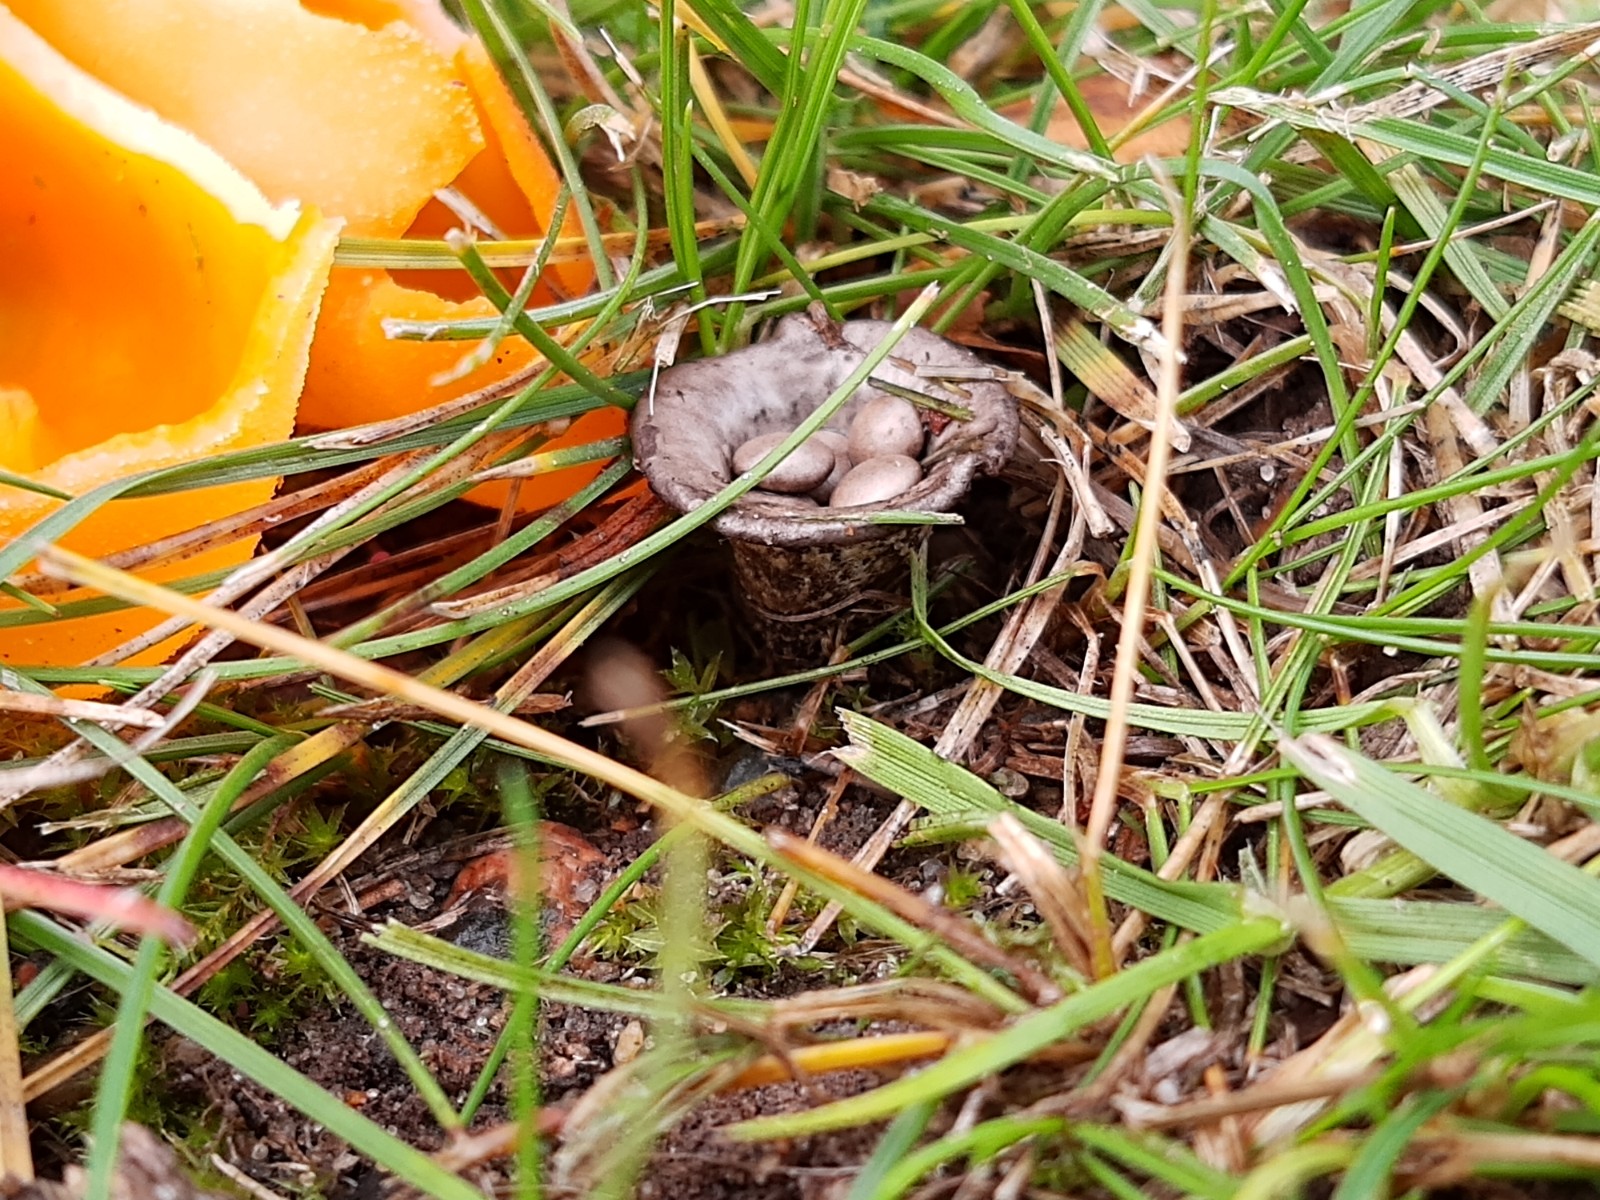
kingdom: Fungi
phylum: Basidiomycota
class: Agaricomycetes
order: Agaricales
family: Agaricaceae
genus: Cyathus
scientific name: Cyathus olla
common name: klokke-redesvamp
